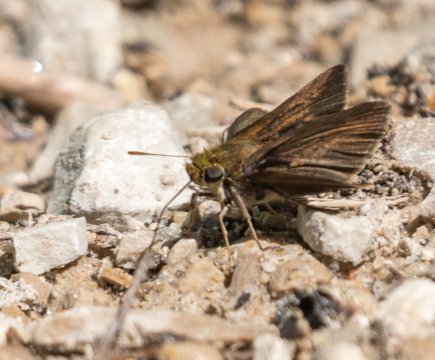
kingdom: Animalia
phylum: Arthropoda
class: Insecta
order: Lepidoptera
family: Hesperiidae
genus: Euphyes
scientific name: Euphyes vestris
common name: Dun Skipper
